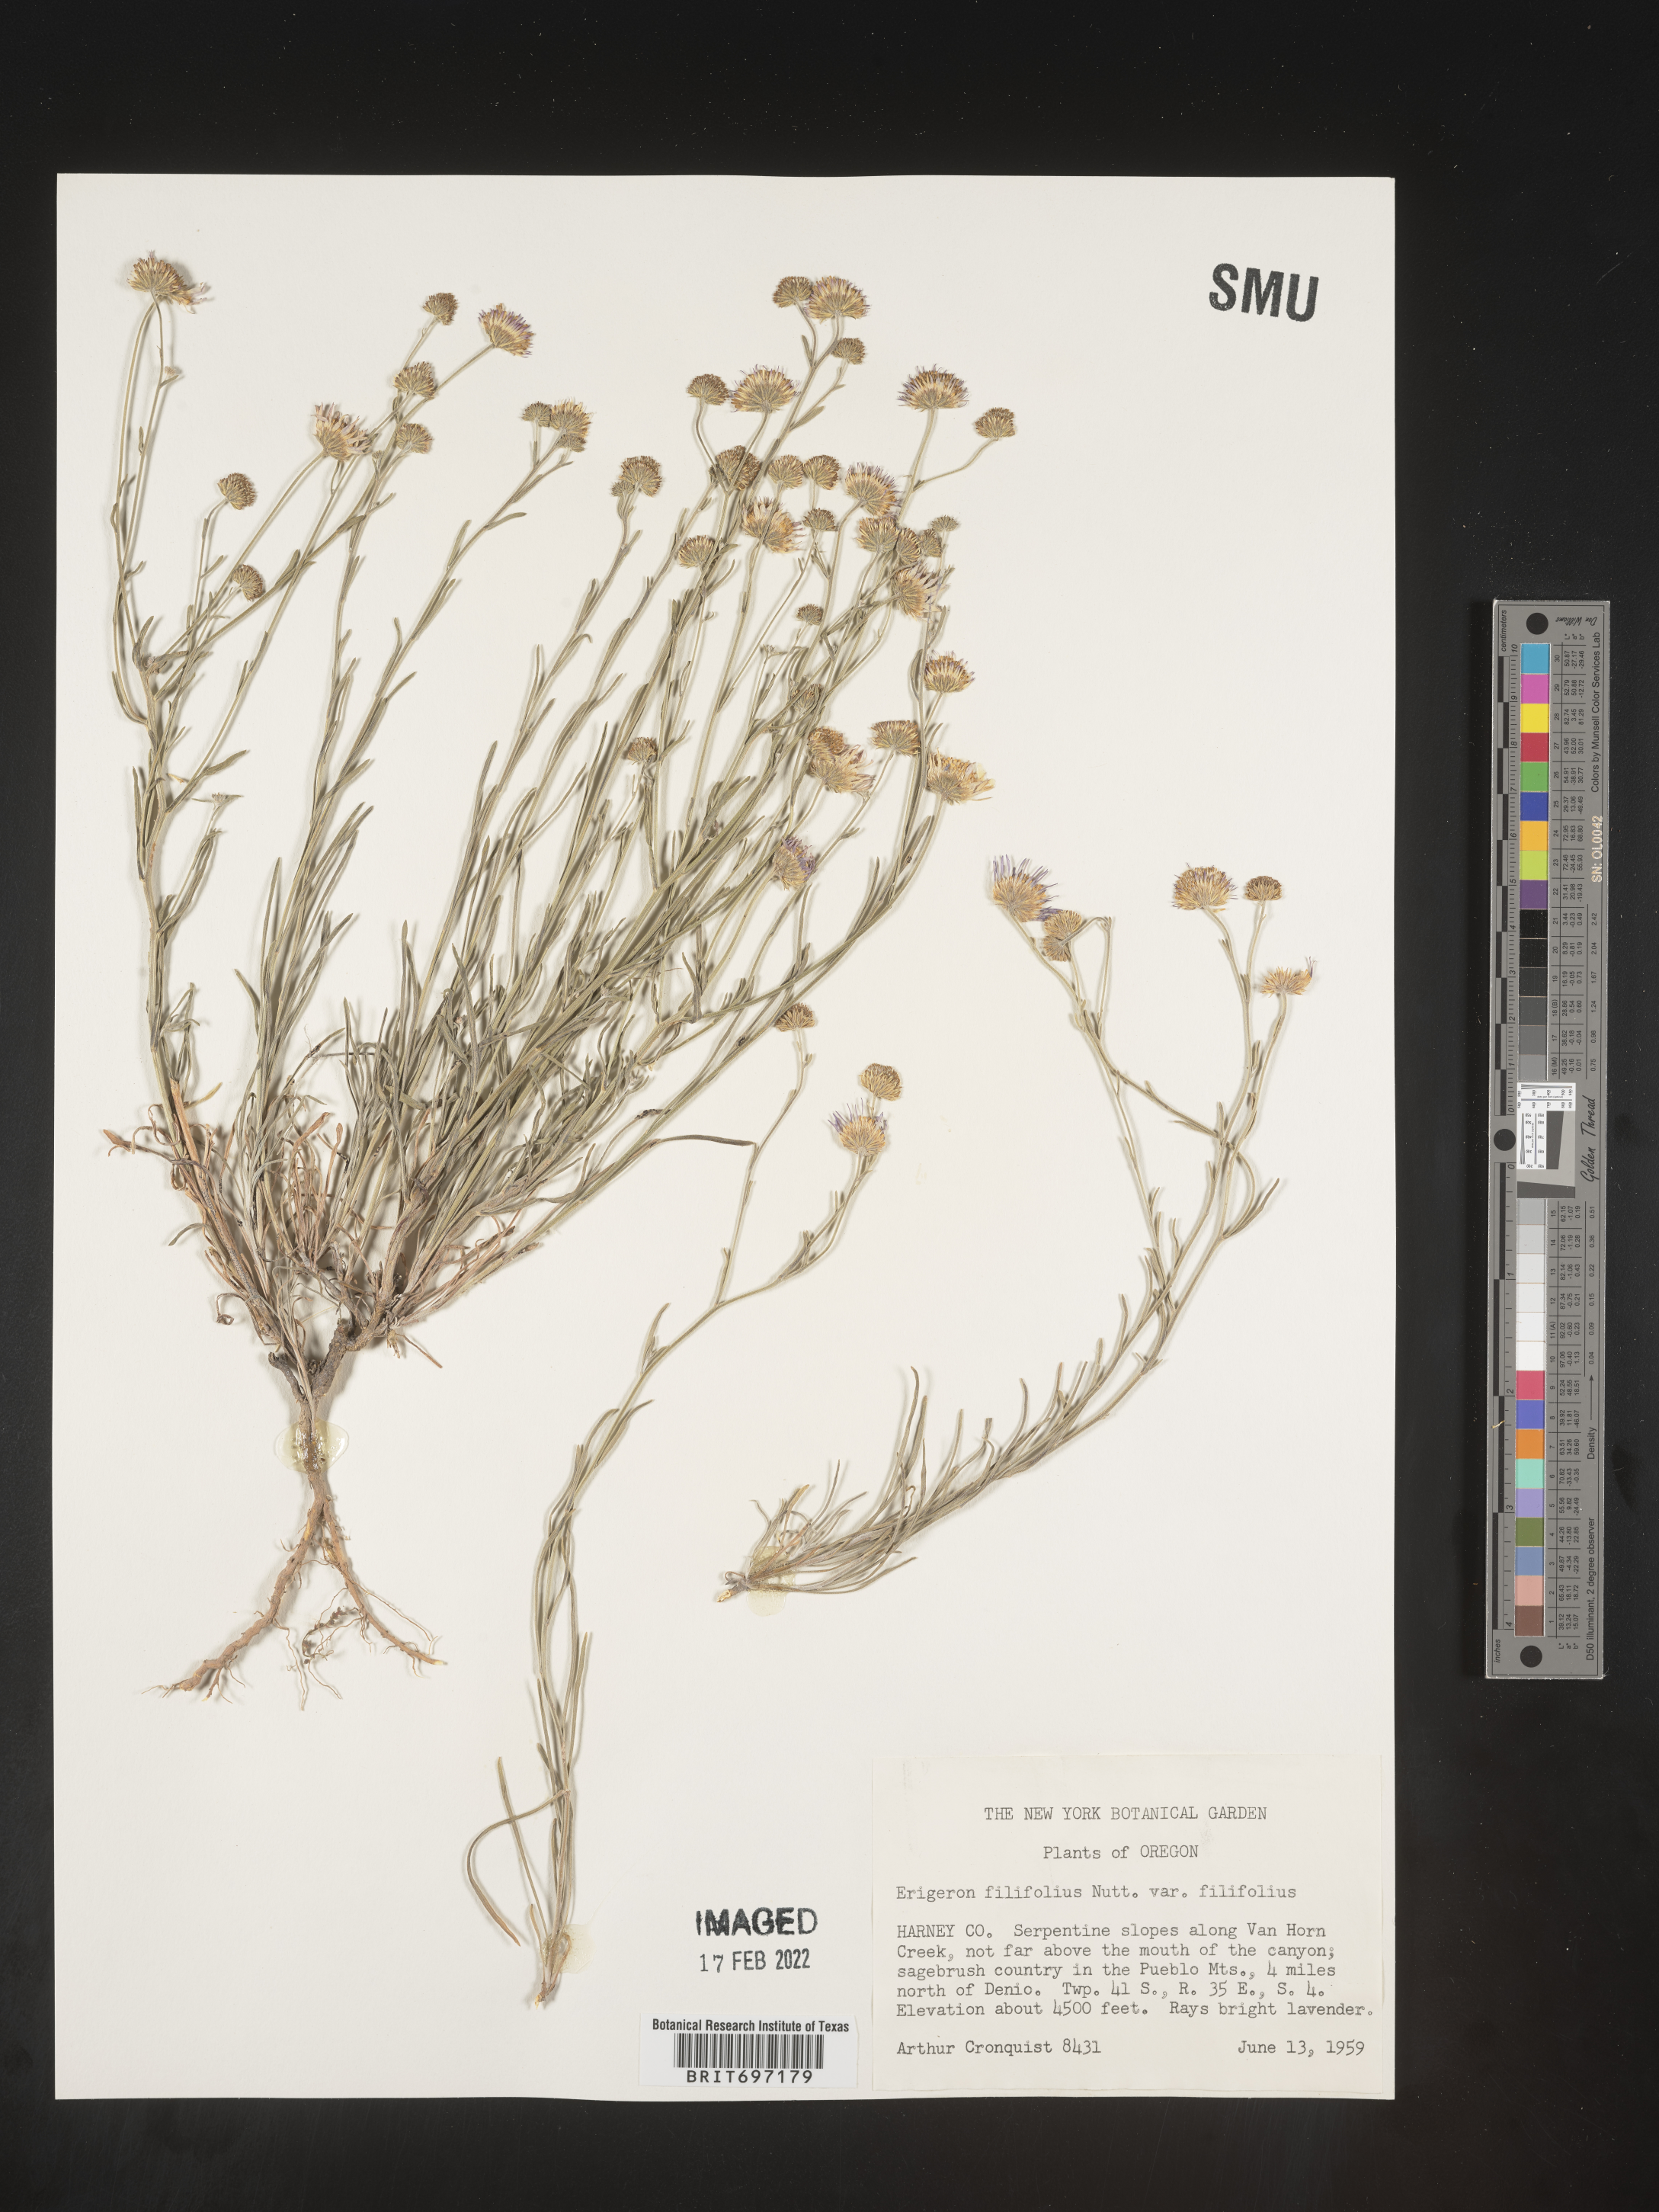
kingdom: Plantae
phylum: Tracheophyta
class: Magnoliopsida
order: Asterales
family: Asteraceae
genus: Erigeron
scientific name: Erigeron filifolius
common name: Threadleaf fleabane
